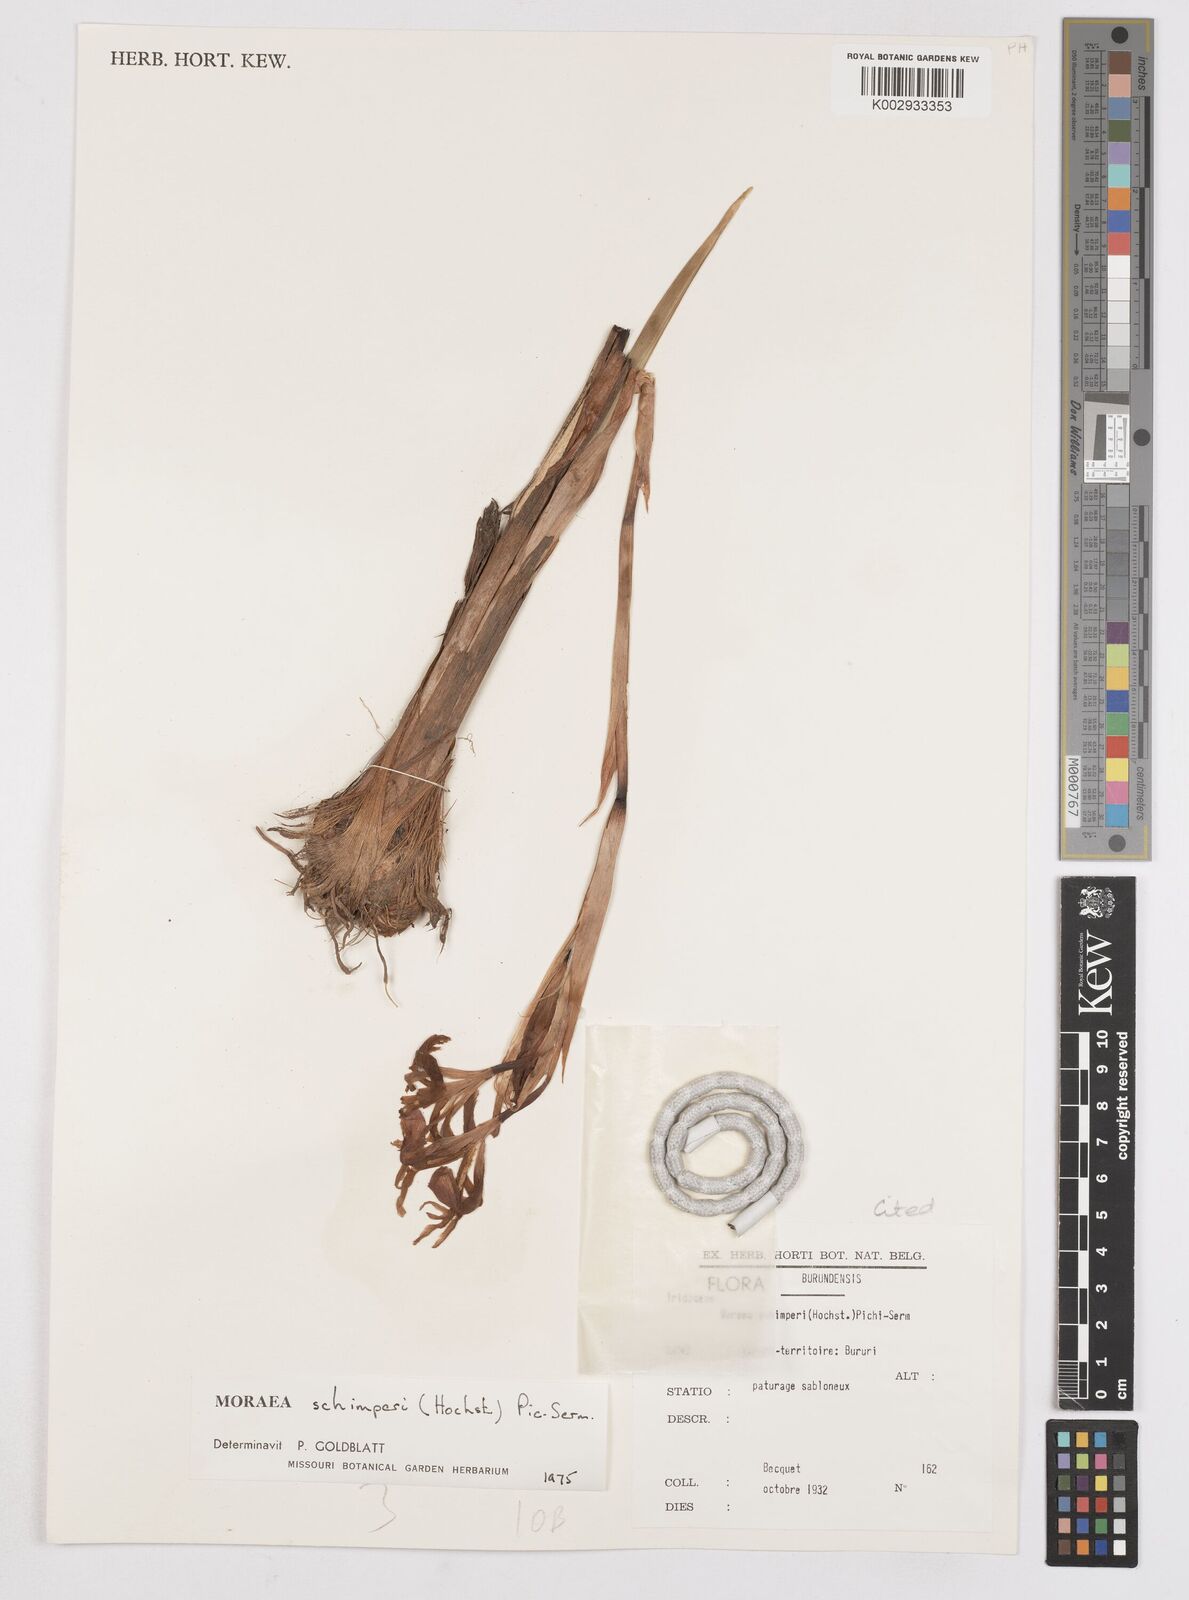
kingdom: Plantae
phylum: Tracheophyta
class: Liliopsida
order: Asparagales
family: Iridaceae
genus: Moraea
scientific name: Moraea schimperi
